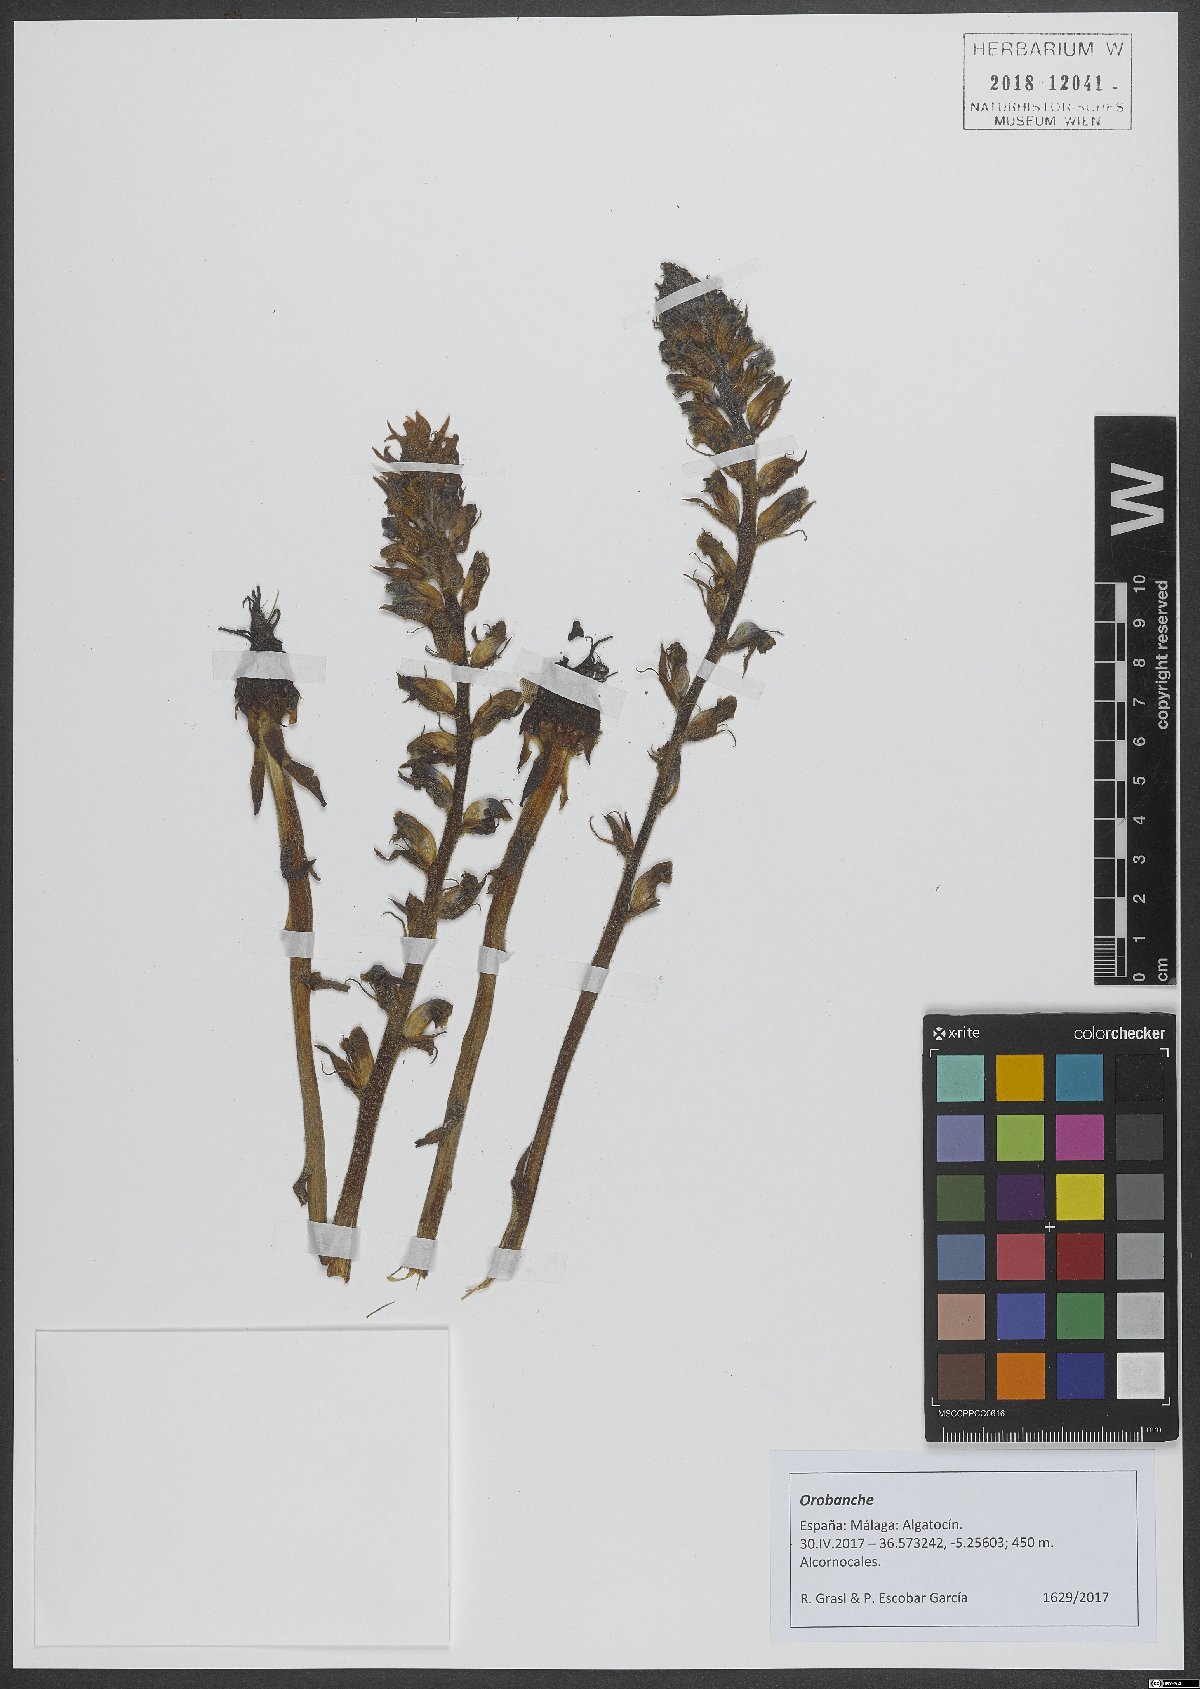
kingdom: Plantae
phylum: Tracheophyta
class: Magnoliopsida
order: Lamiales
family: Orobanchaceae
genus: Orobanche
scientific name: Orobanche
